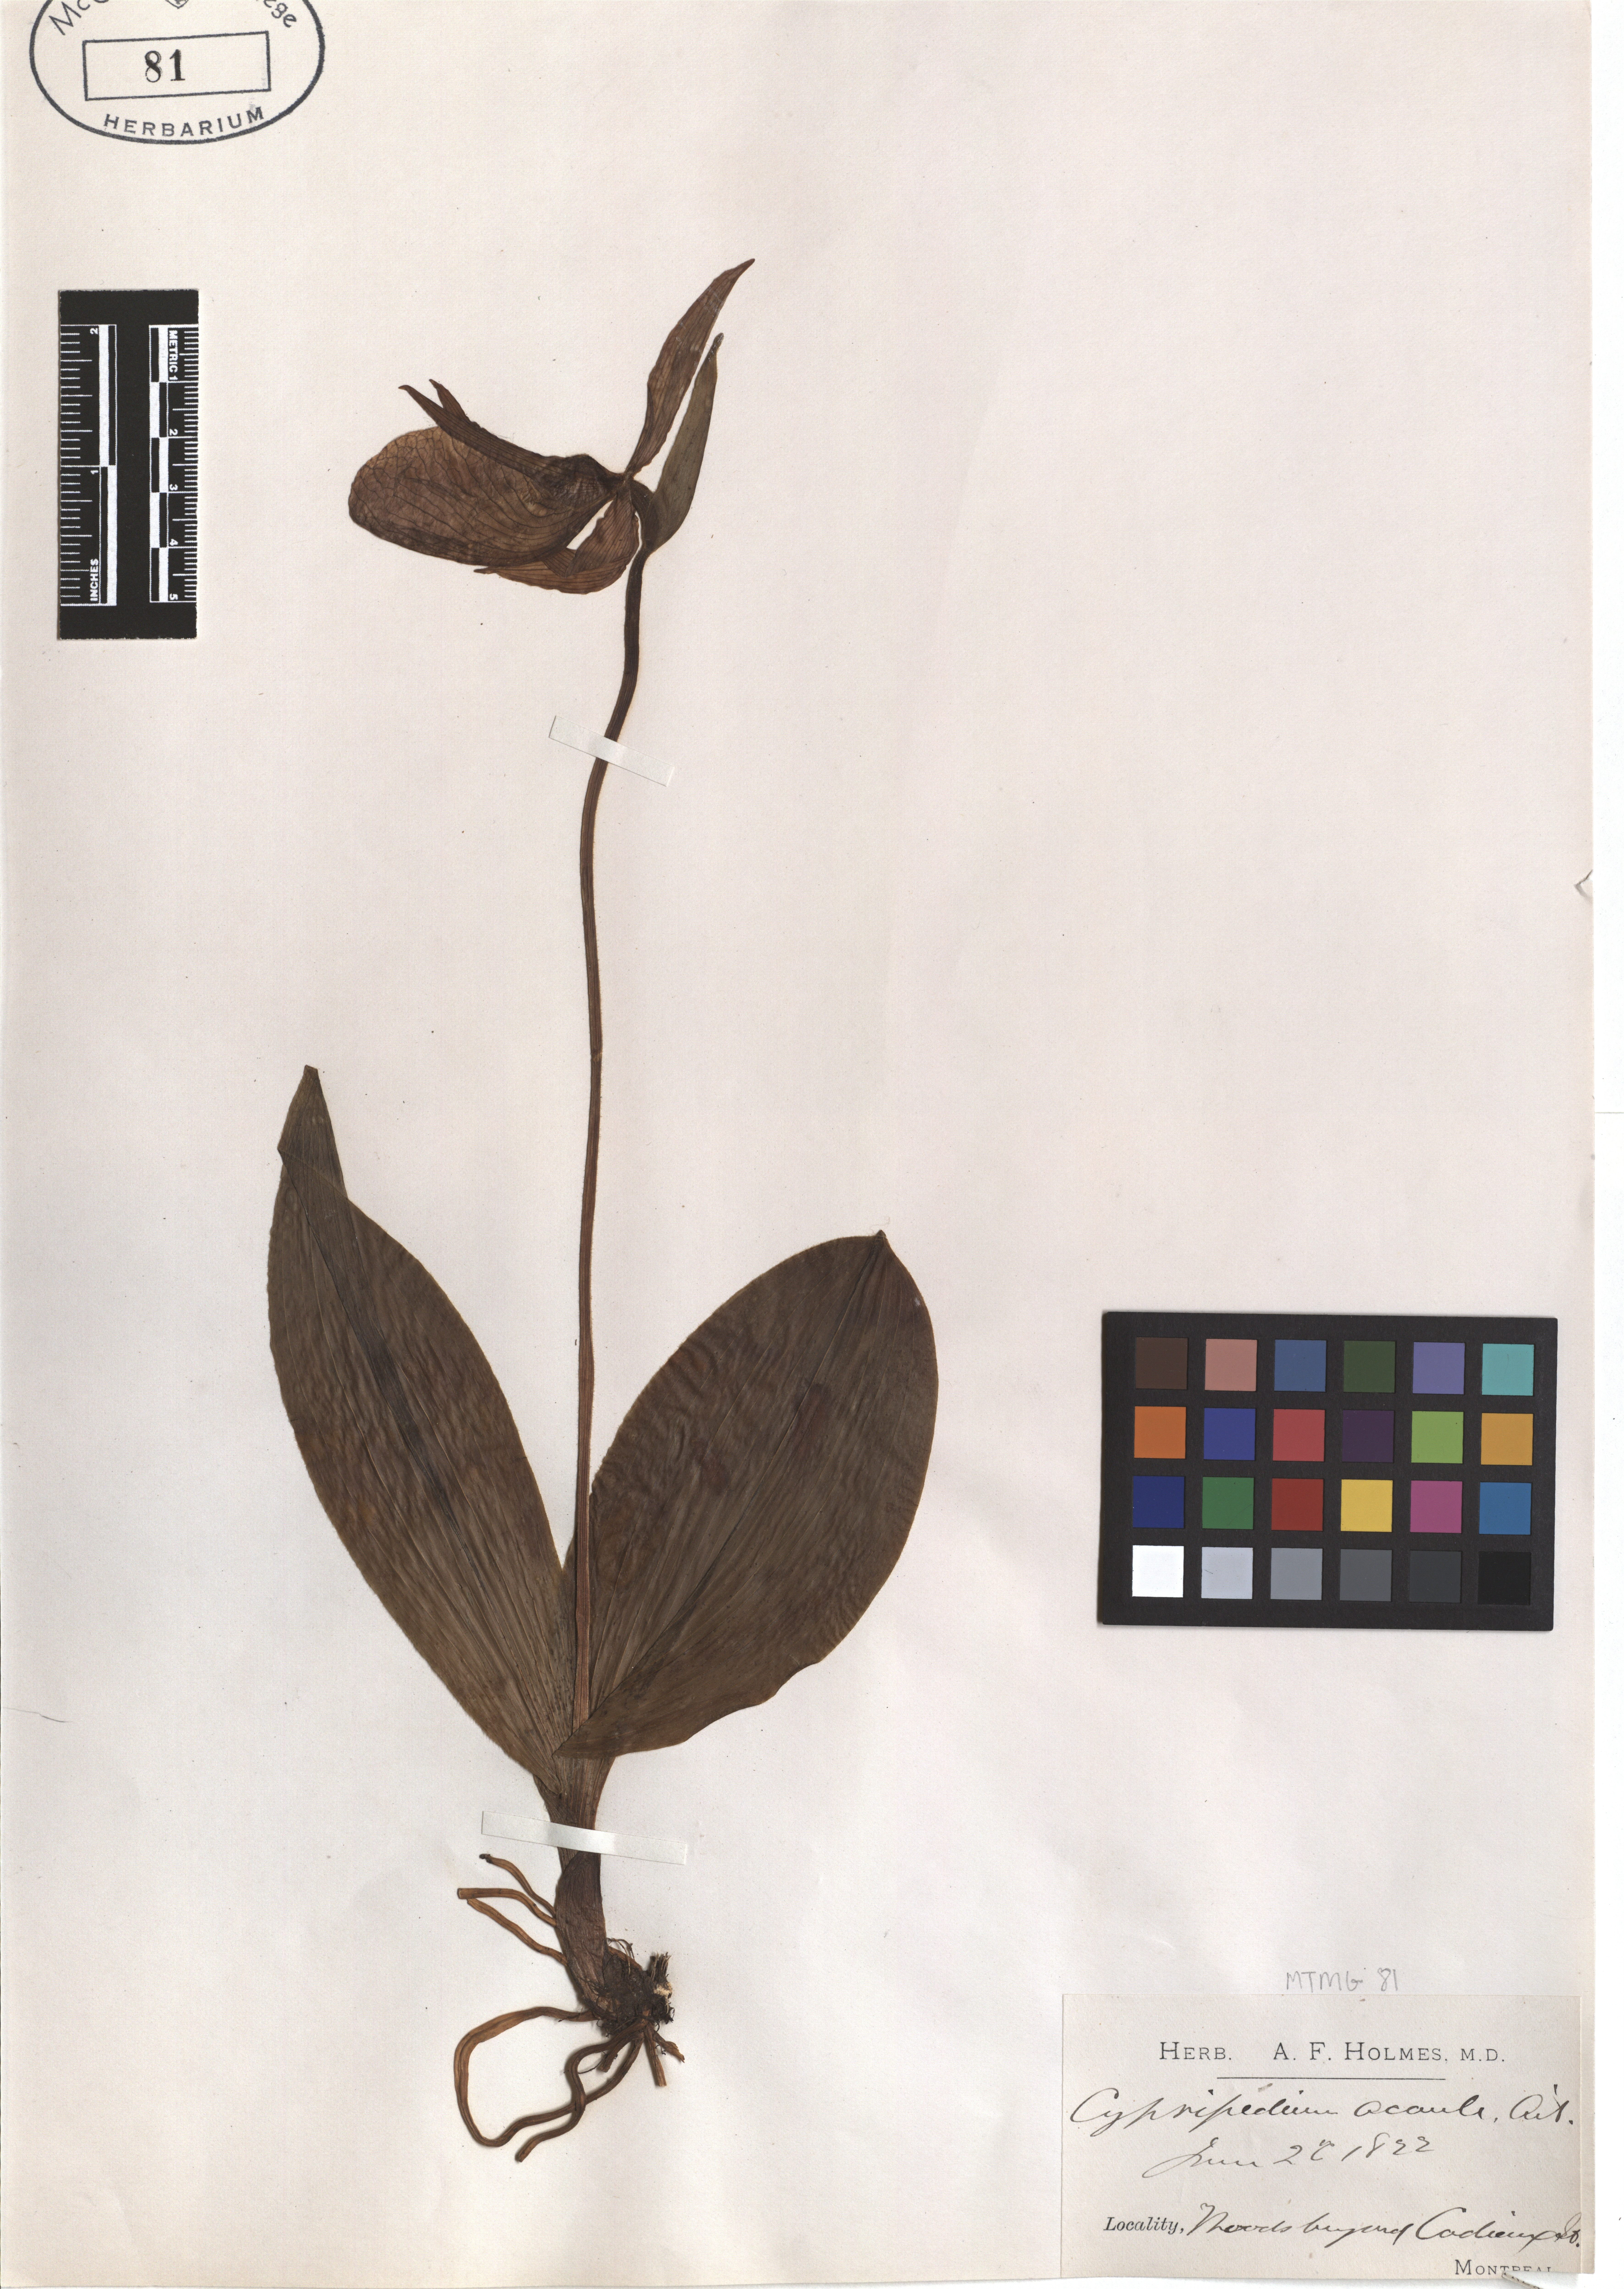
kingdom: Plantae
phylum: Tracheophyta
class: Liliopsida
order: Asparagales
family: Orchidaceae
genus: Cypripedium
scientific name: Cypripedium acaule
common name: Pink lady's-slipper
